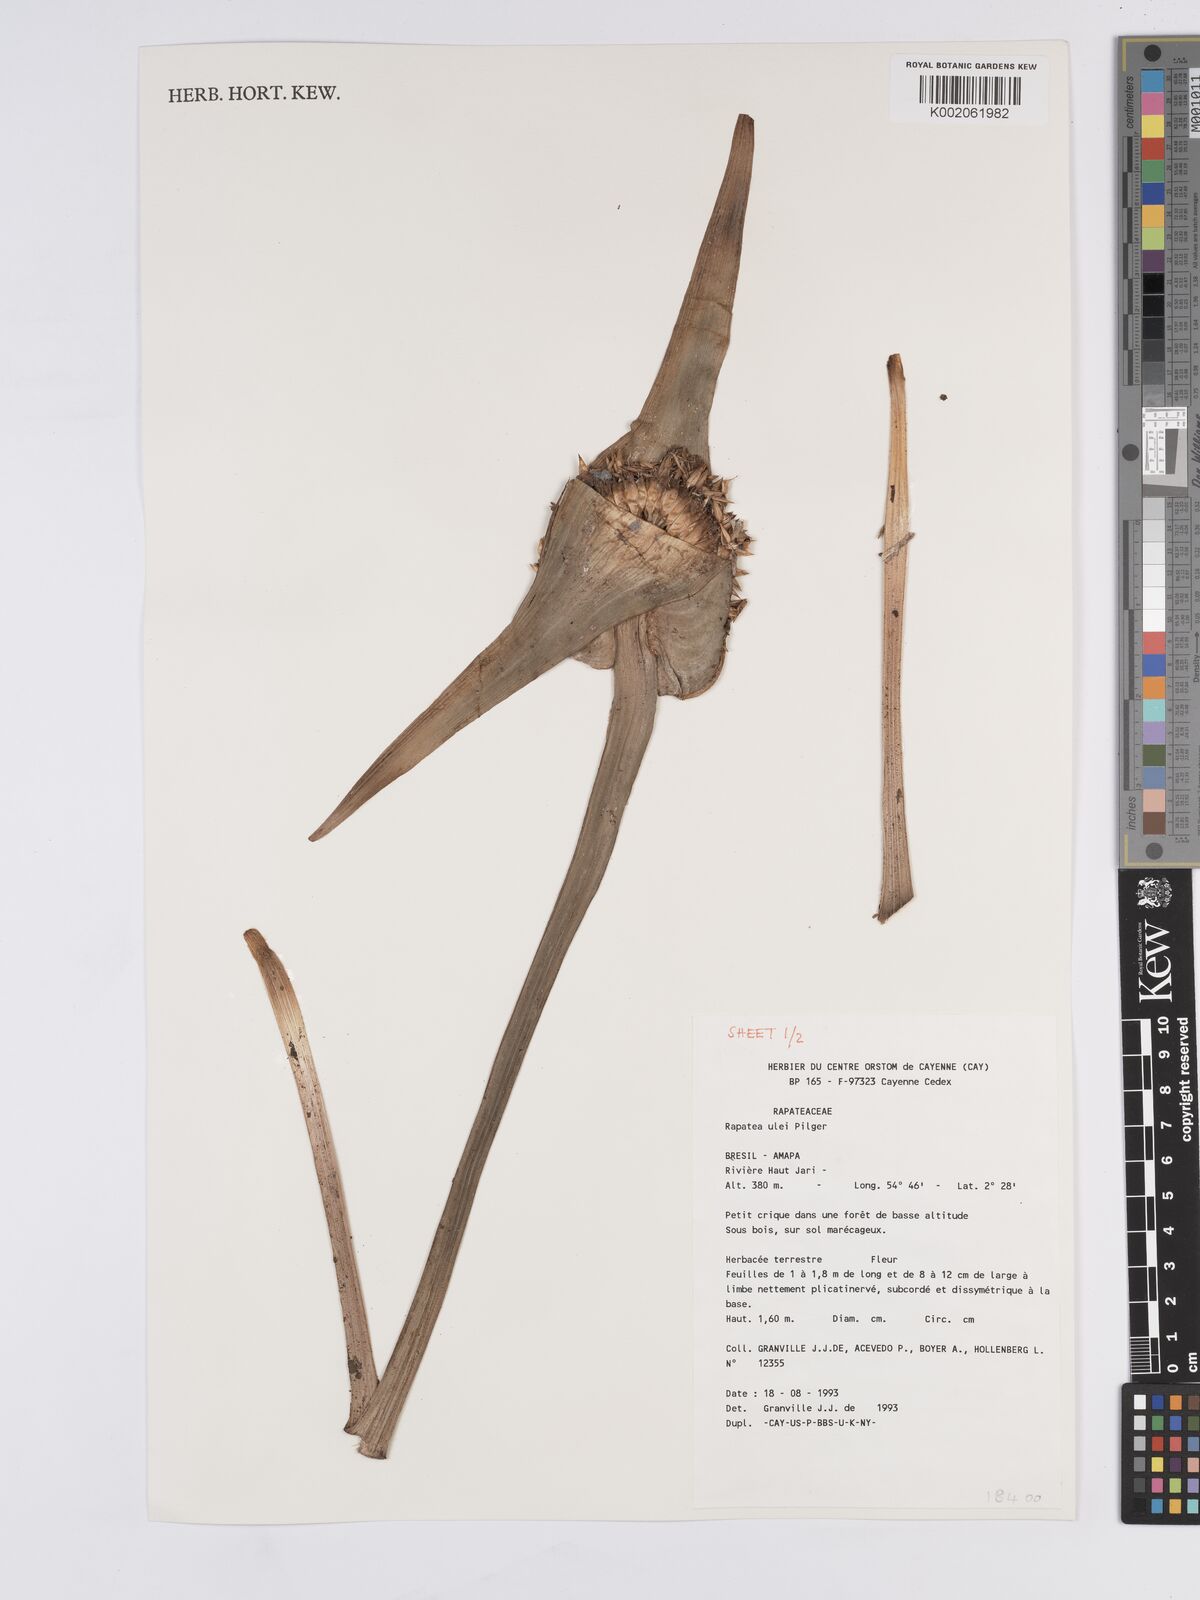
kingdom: Plantae
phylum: Tracheophyta
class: Liliopsida
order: Poales
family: Rapateaceae
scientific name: Rapateaceae
